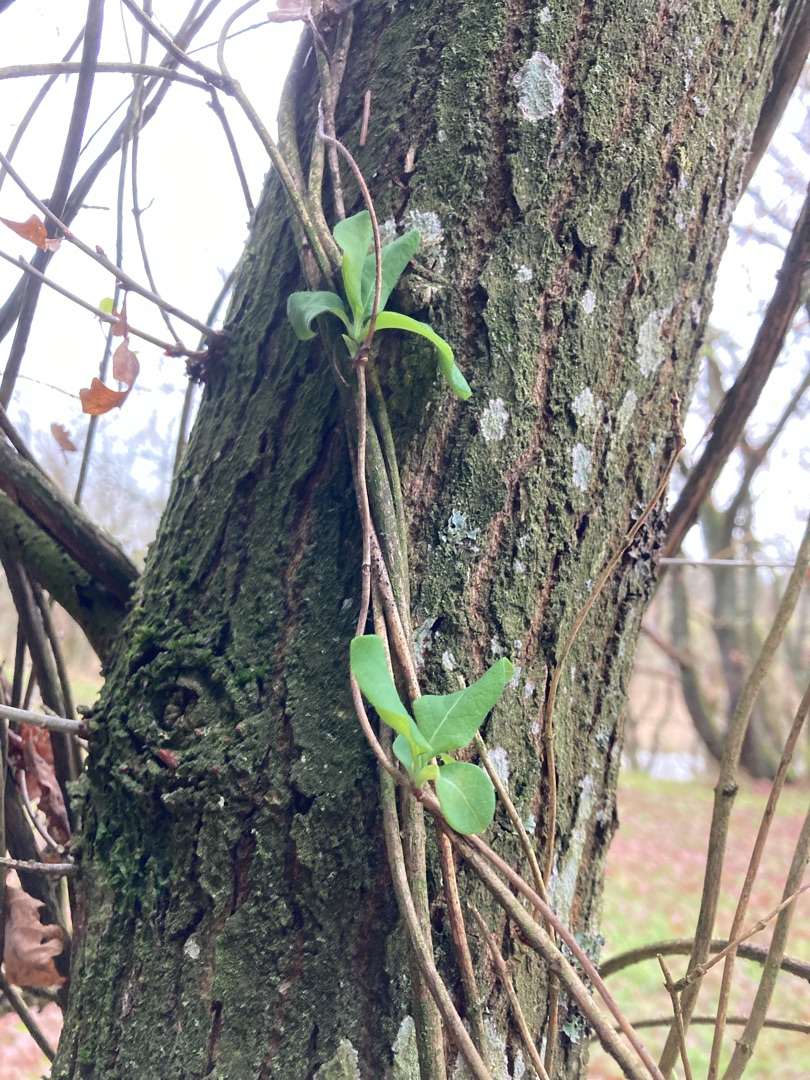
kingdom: Plantae
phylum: Tracheophyta
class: Magnoliopsida
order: Dipsacales
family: Caprifoliaceae
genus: Lonicera
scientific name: Lonicera periclymenum
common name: Almindelig gedeblad
